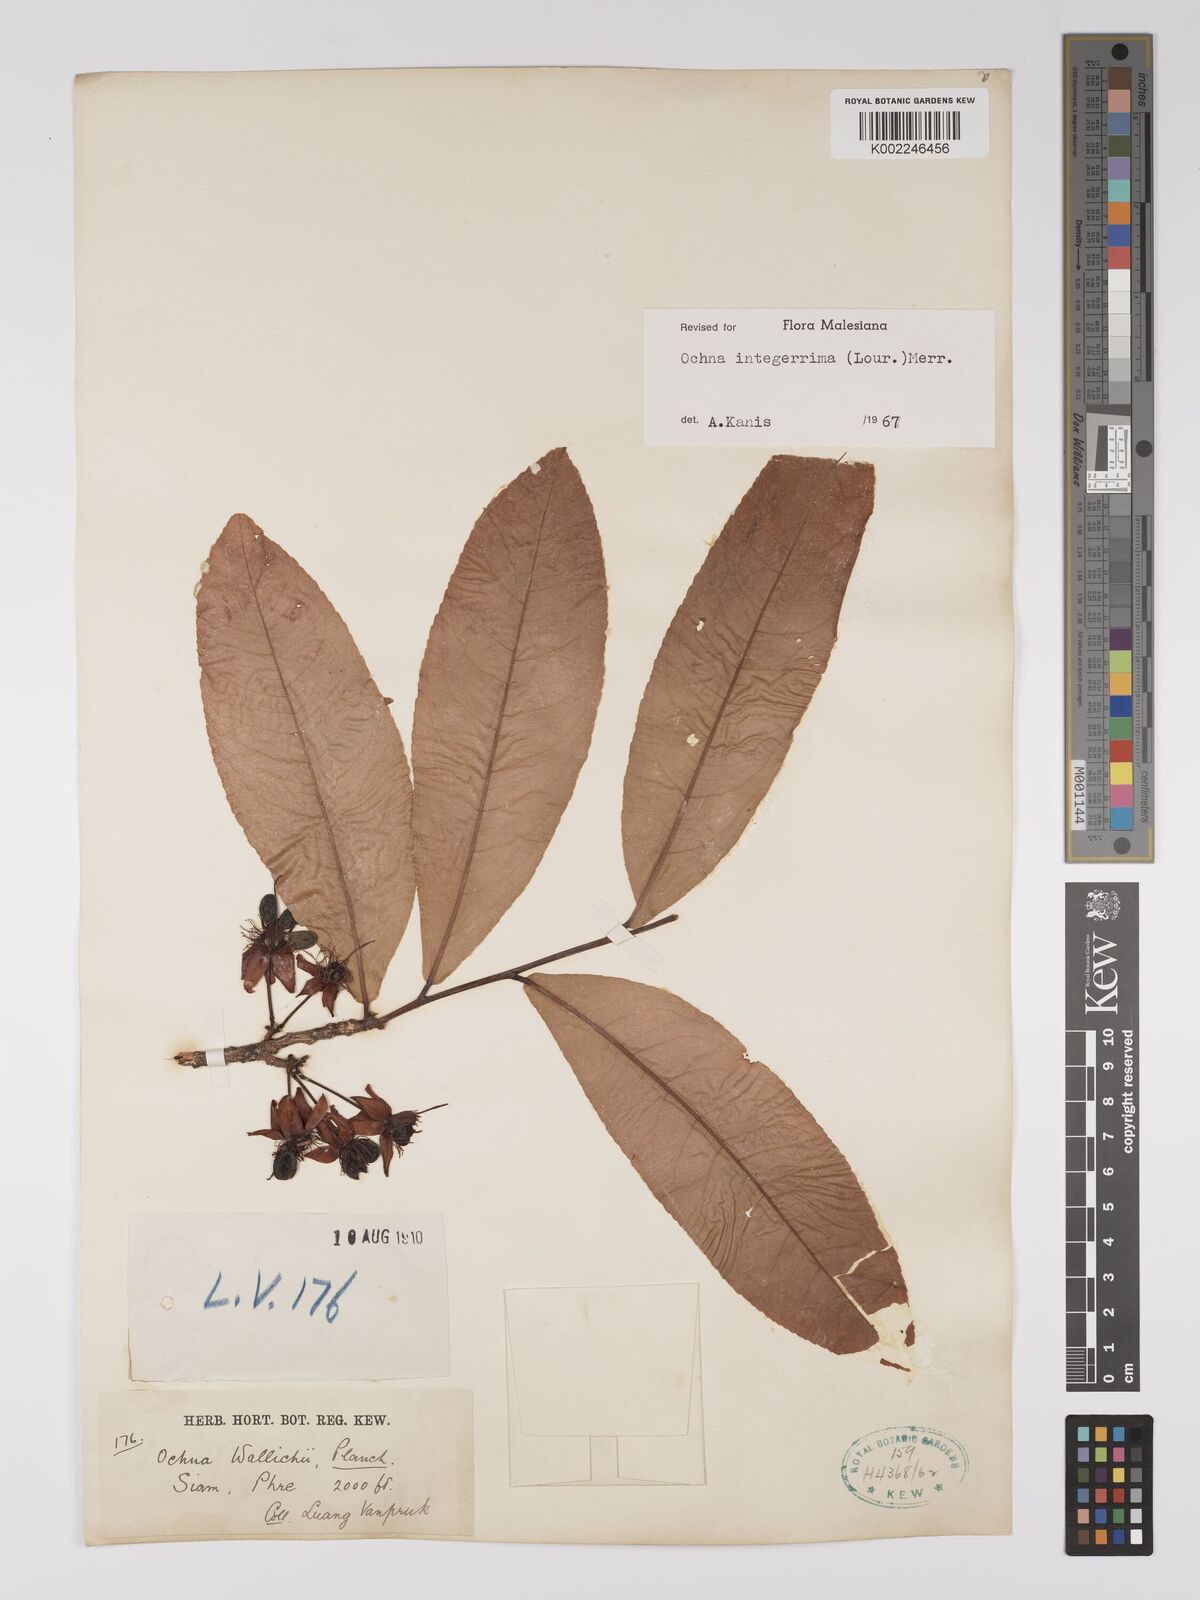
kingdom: Plantae
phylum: Tracheophyta
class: Magnoliopsida
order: Malpighiales
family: Ochnaceae
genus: Ochna
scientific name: Ochna integerrima
